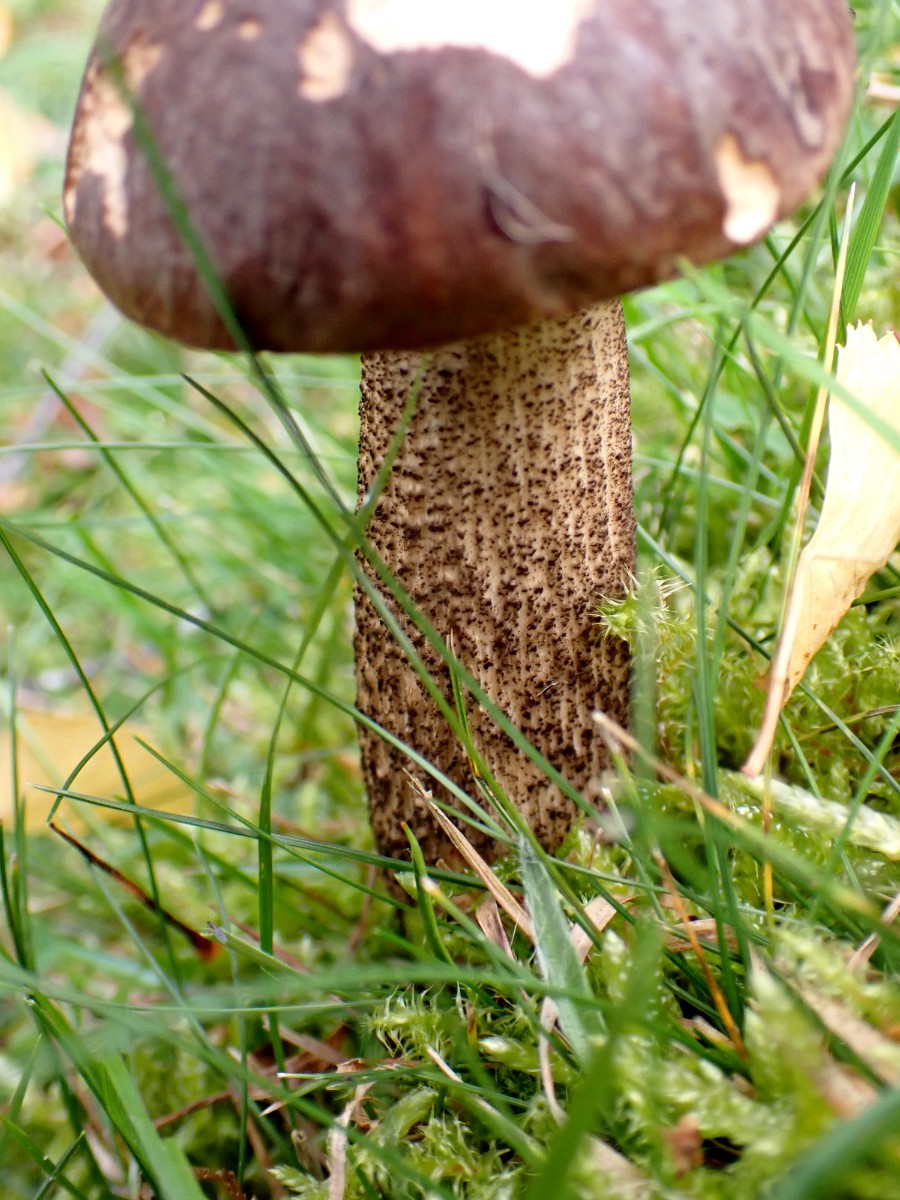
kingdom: Fungi
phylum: Basidiomycota
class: Agaricomycetes
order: Boletales
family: Boletaceae
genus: Leccinum
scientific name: Leccinum
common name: skælrørhat
